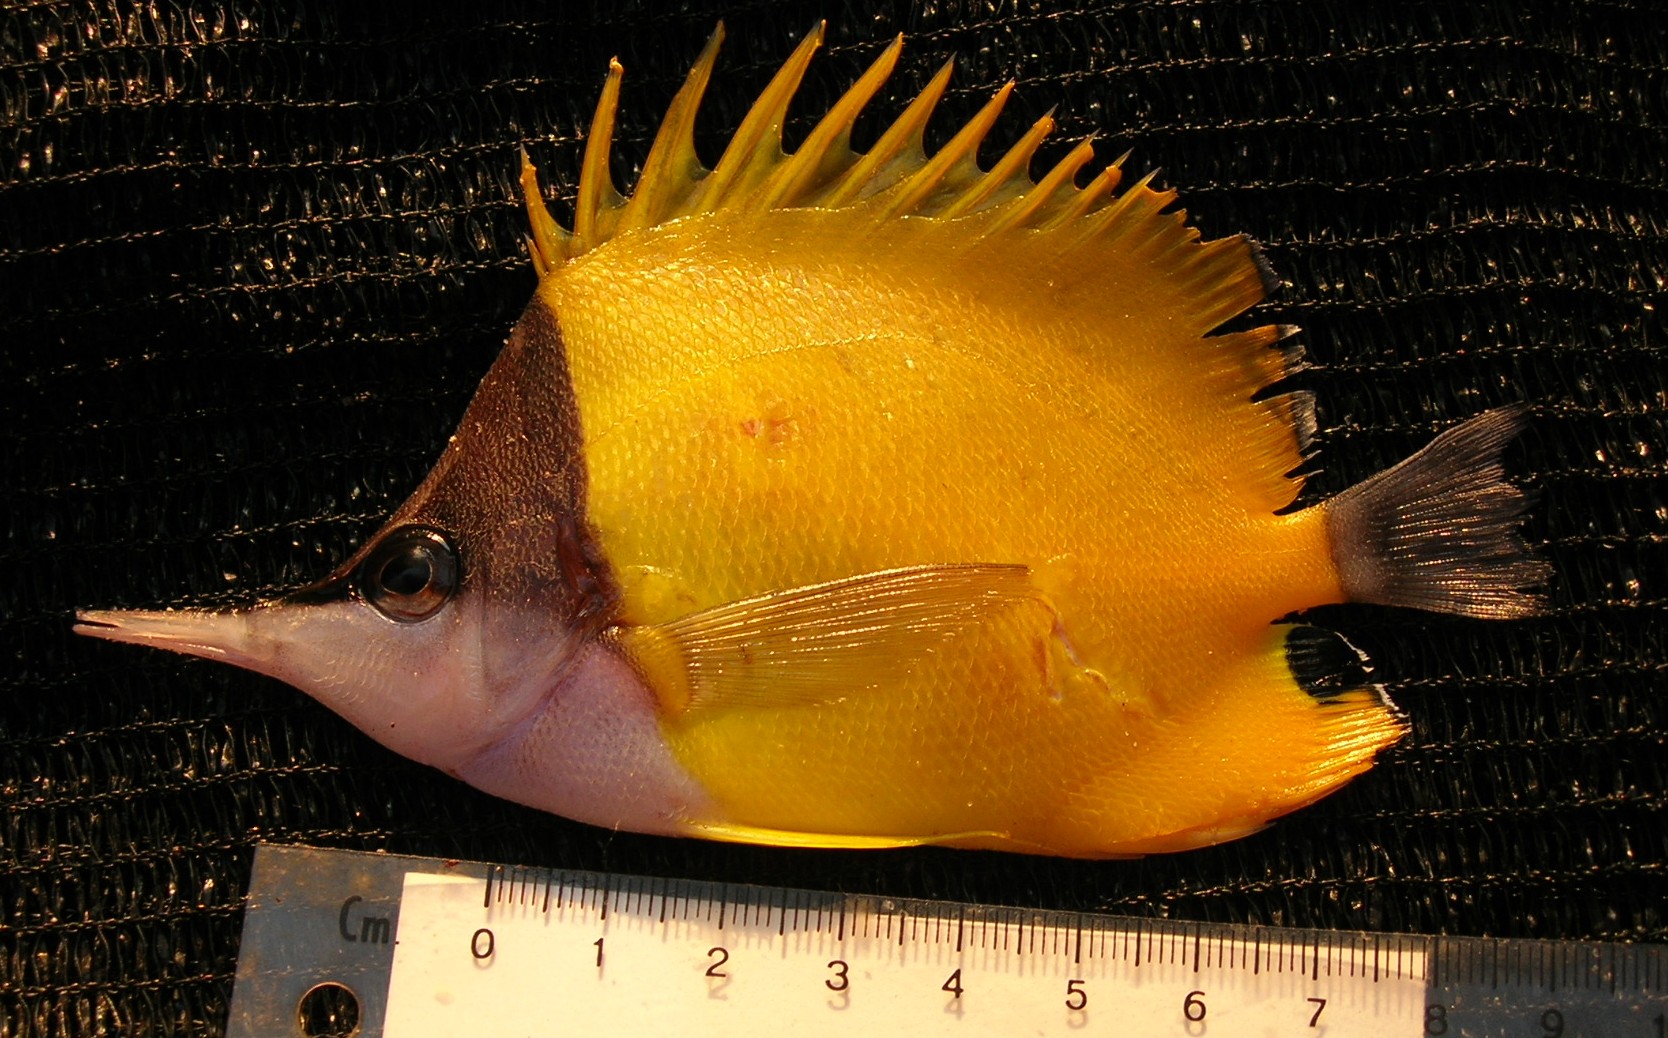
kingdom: Animalia
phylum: Chordata
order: Perciformes
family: Chaetodontidae
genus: Forcipiger
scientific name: Forcipiger flavissimus
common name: Forcepsfish
